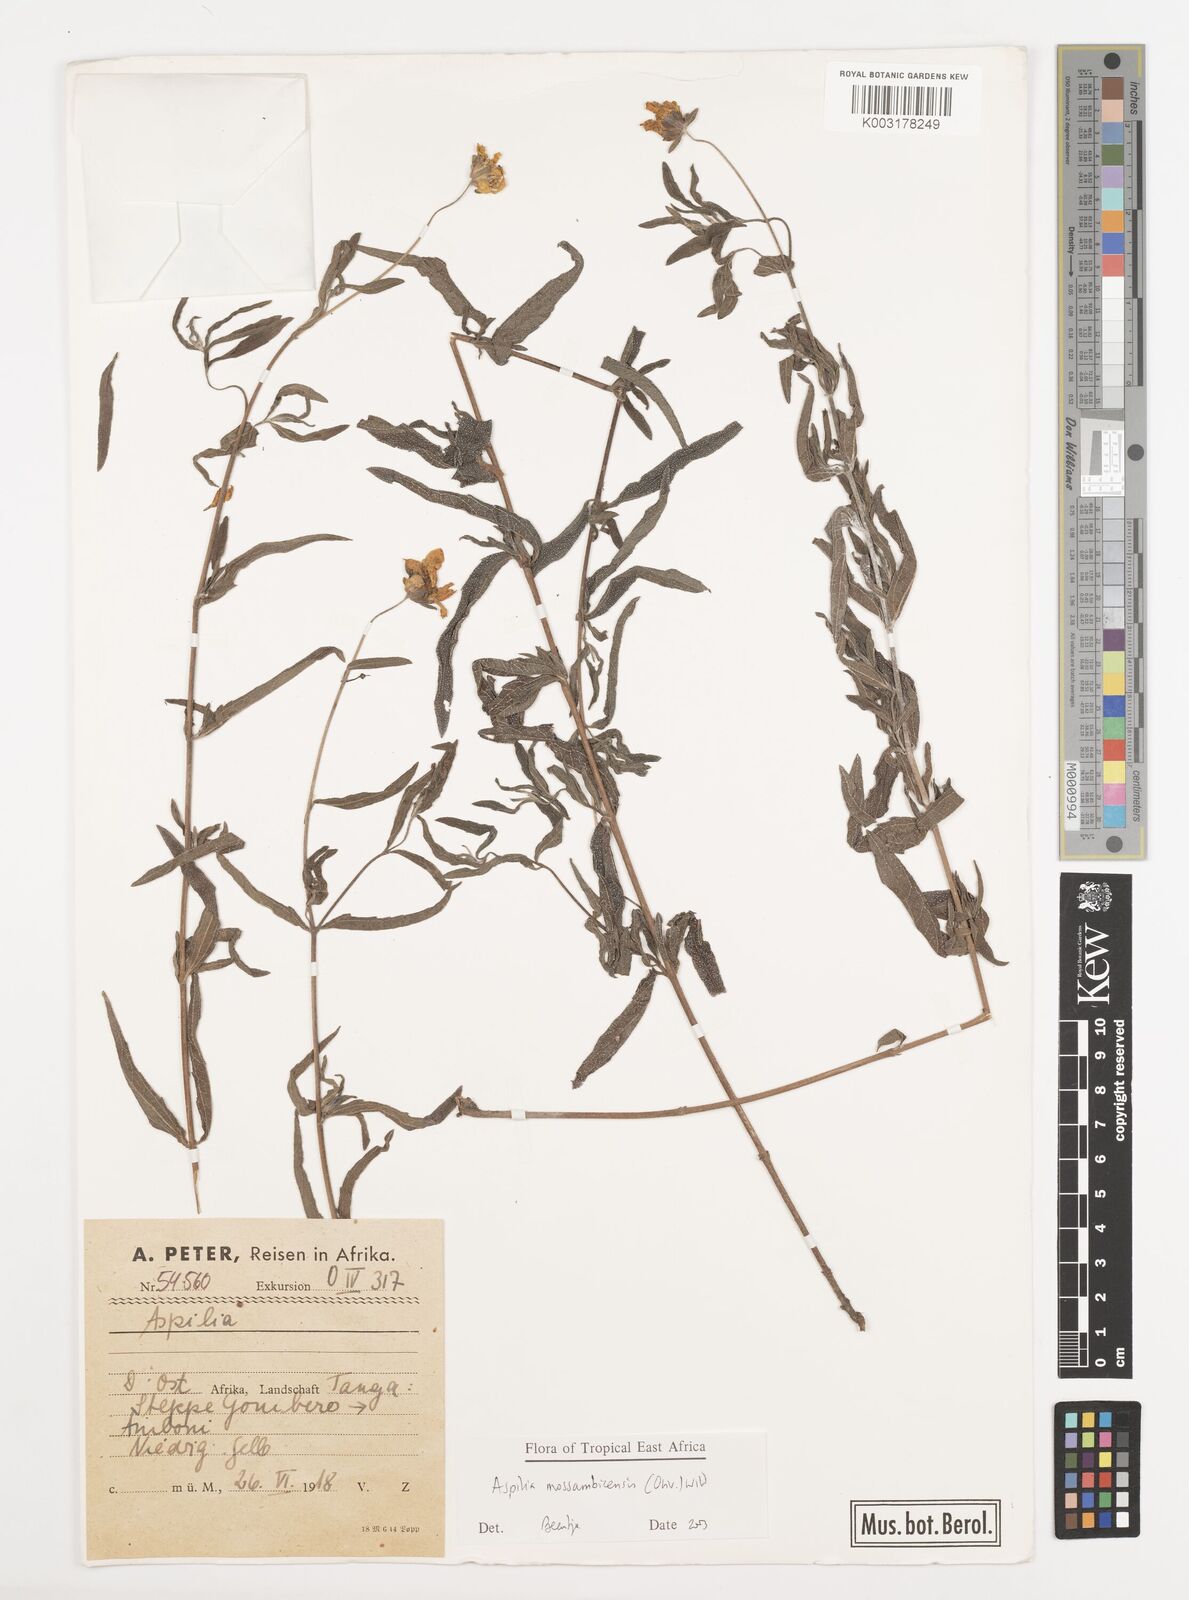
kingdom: Plantae
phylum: Tracheophyta
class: Magnoliopsida
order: Asterales
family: Asteraceae
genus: Aspilia
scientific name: Aspilia mossambicensis
